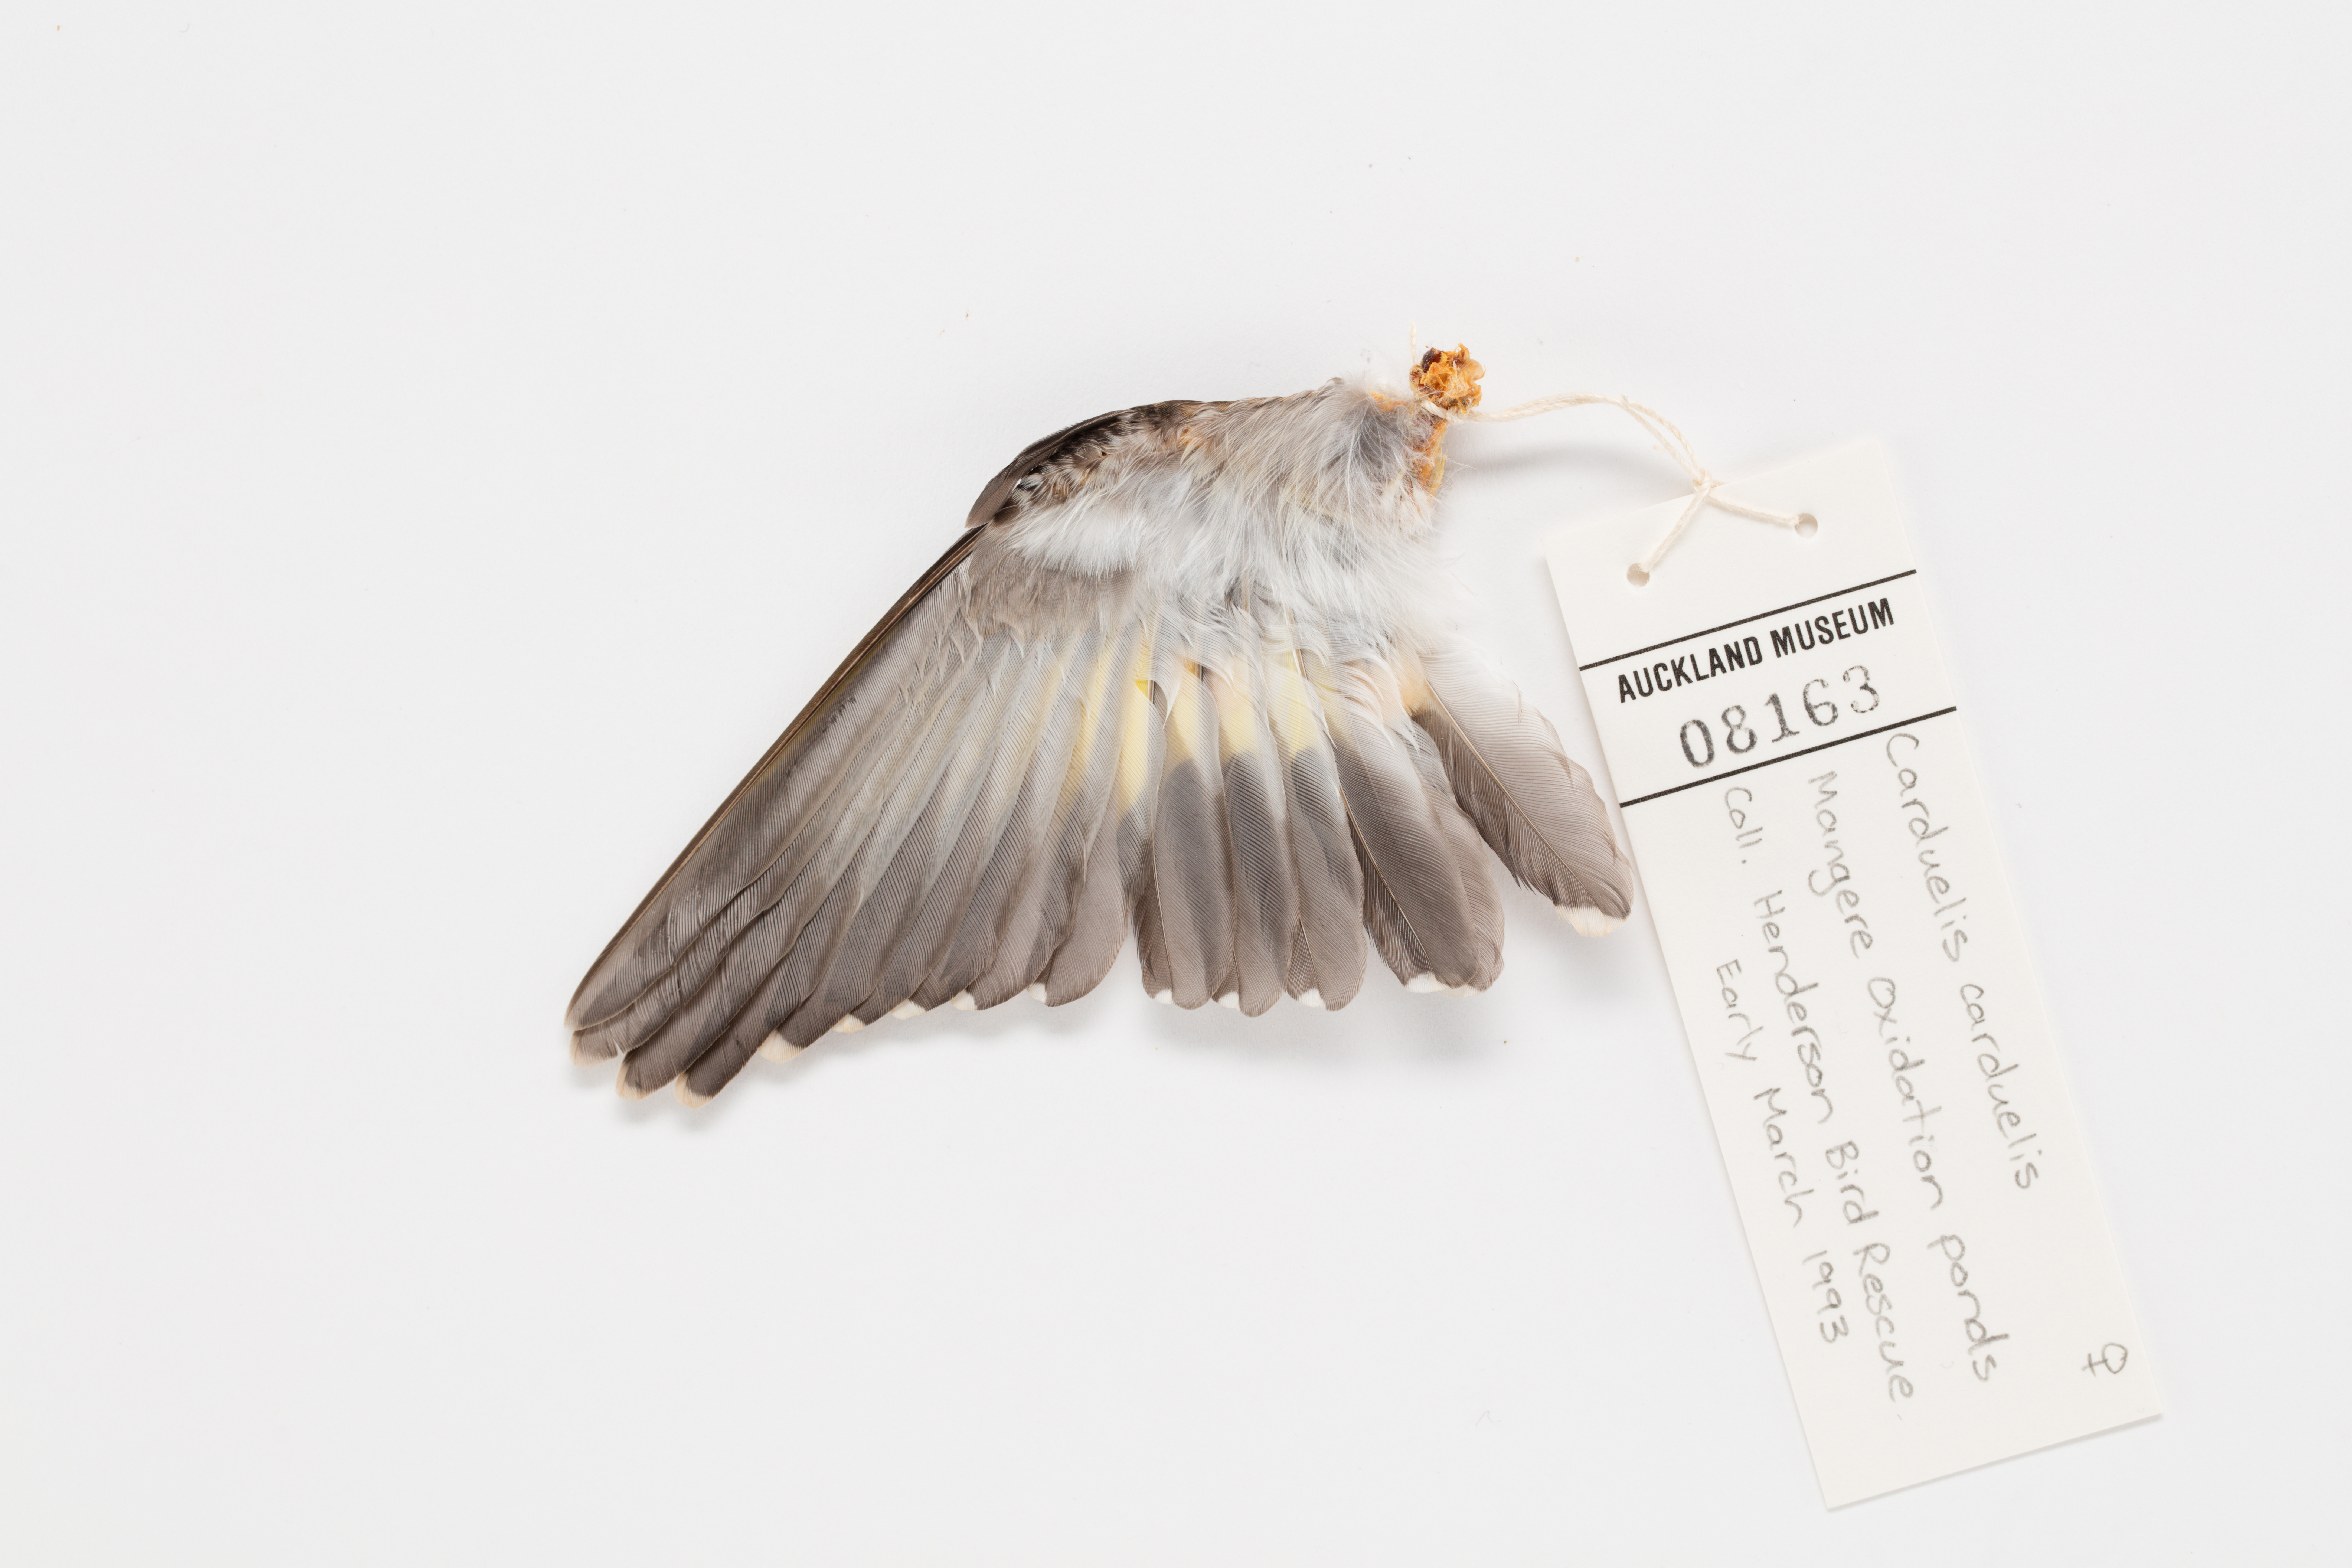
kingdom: Animalia
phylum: Chordata
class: Aves
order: Passeriformes
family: Fringillidae
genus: Carduelis
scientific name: Carduelis carduelis
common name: European goldfinch
